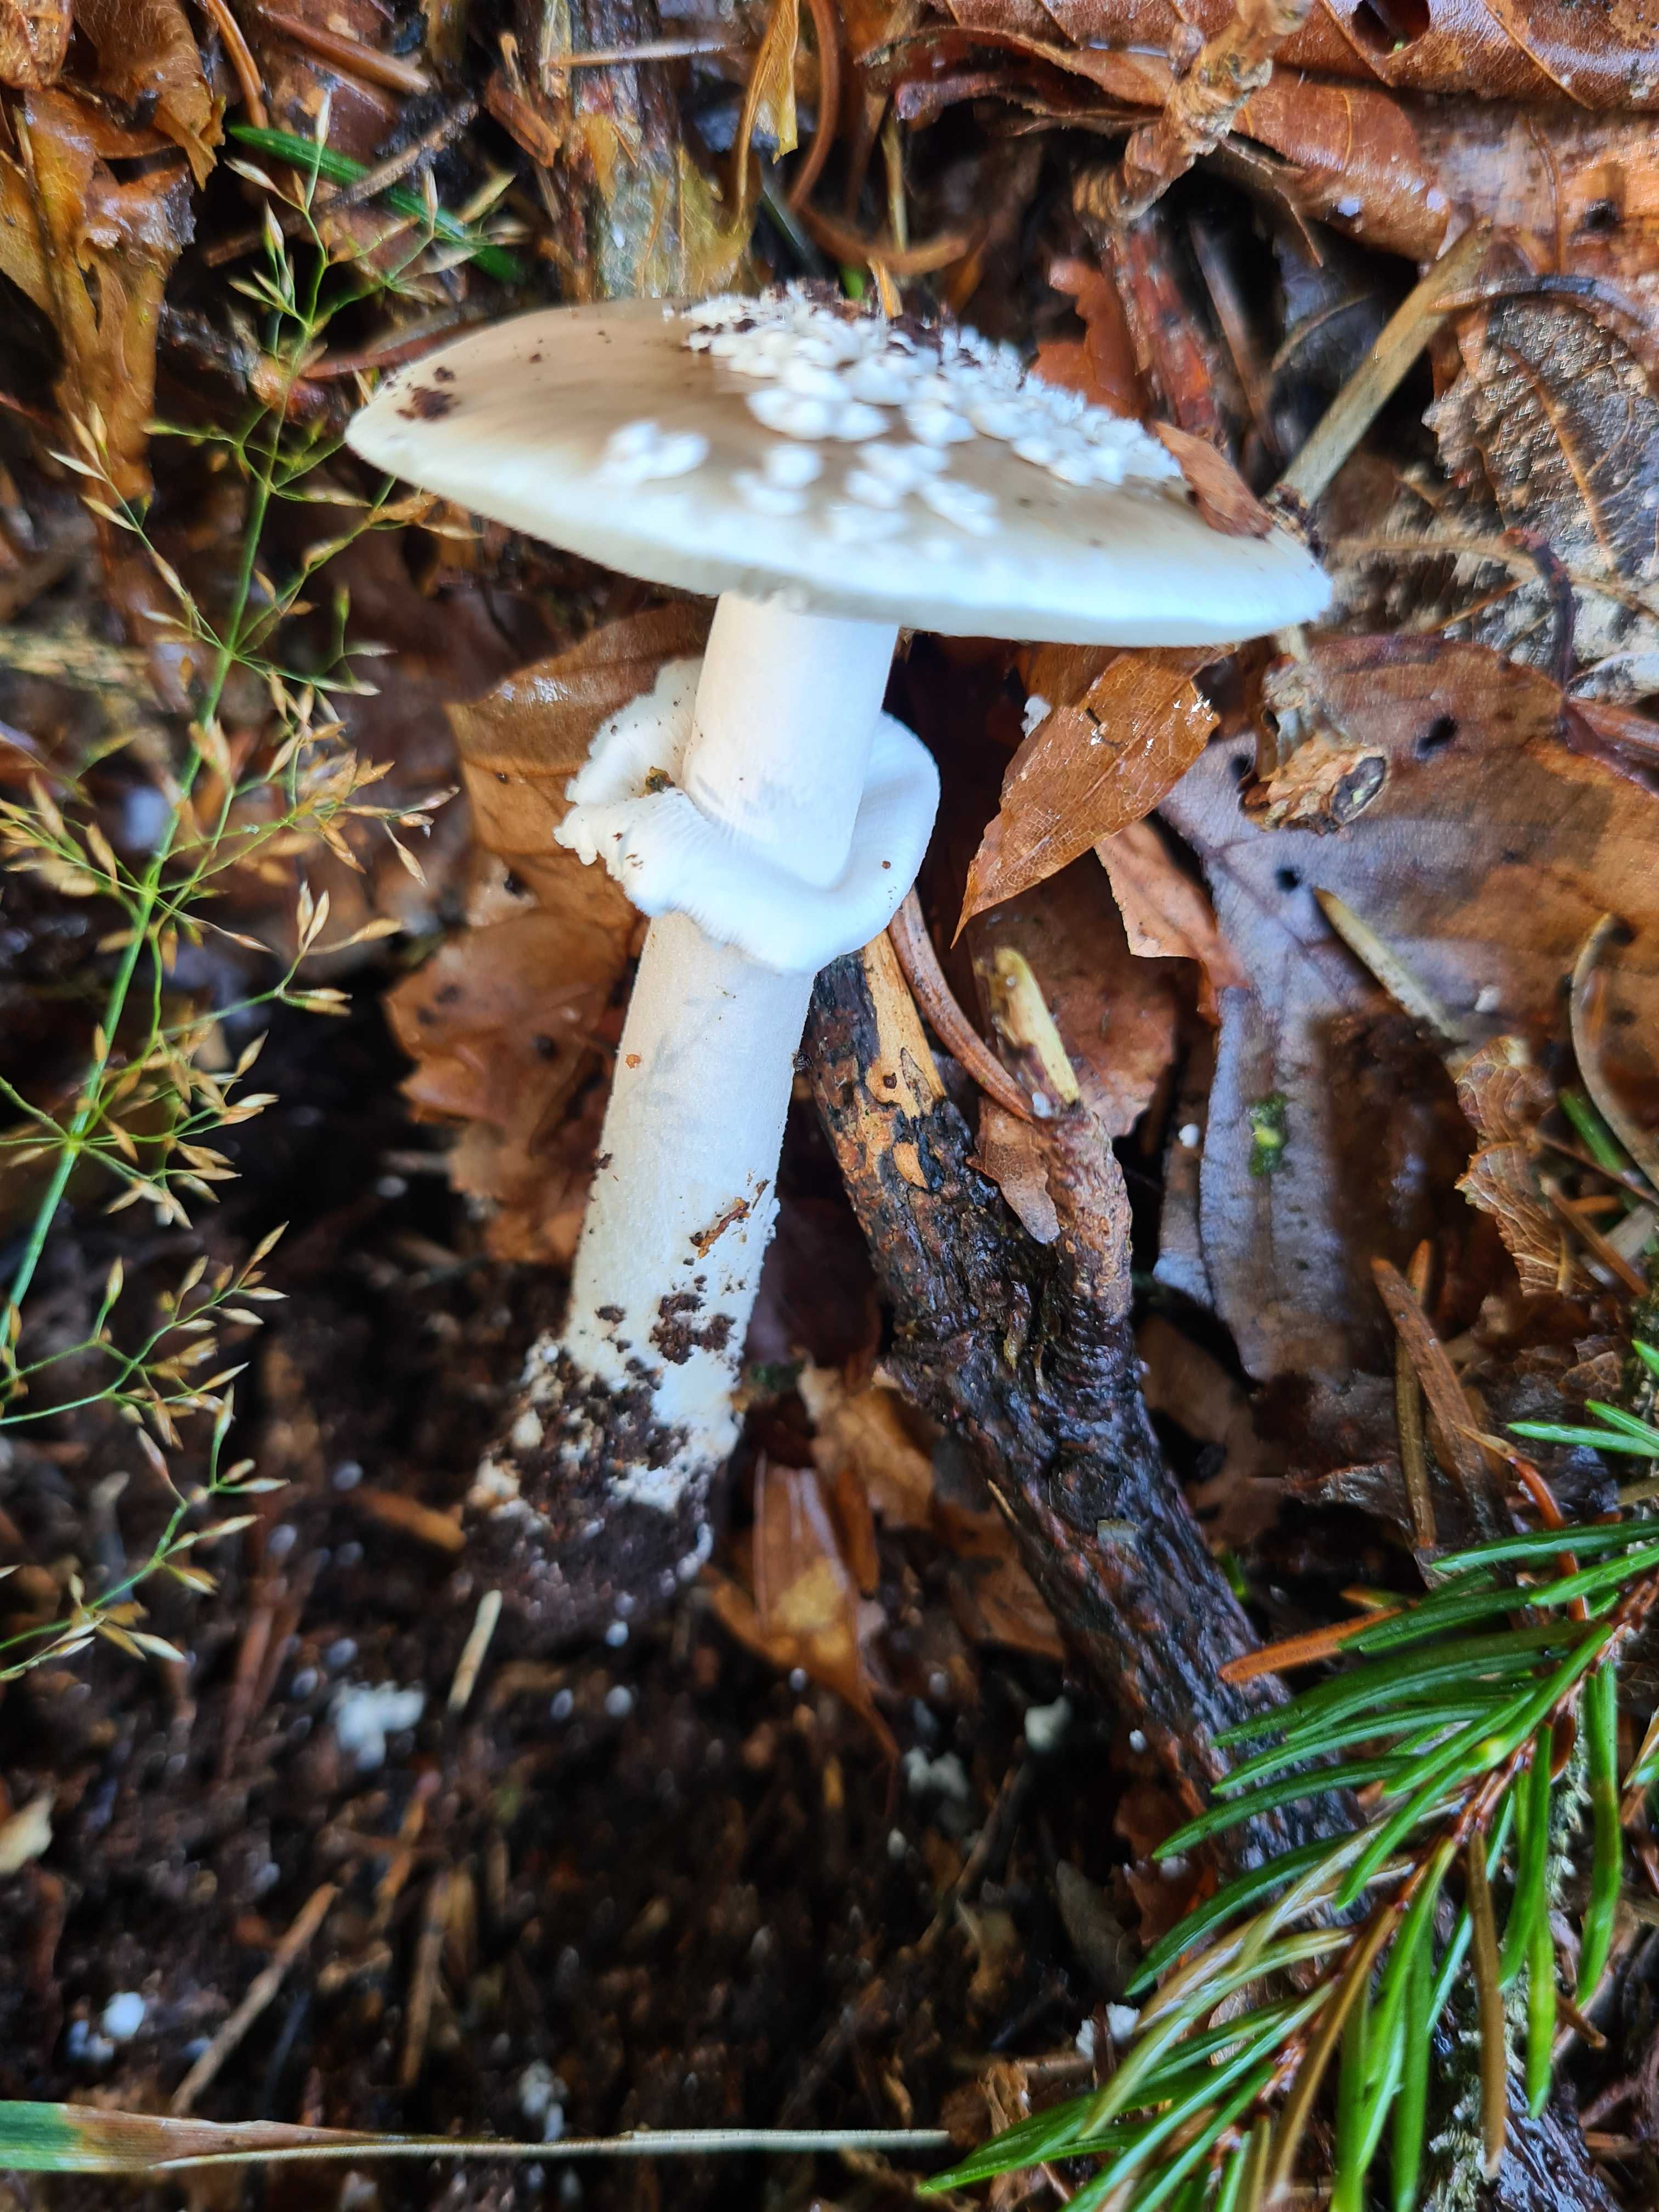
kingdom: Fungi
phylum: Basidiomycota
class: Agaricomycetes
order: Agaricales
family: Amanitaceae
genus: Amanita
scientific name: Amanita
